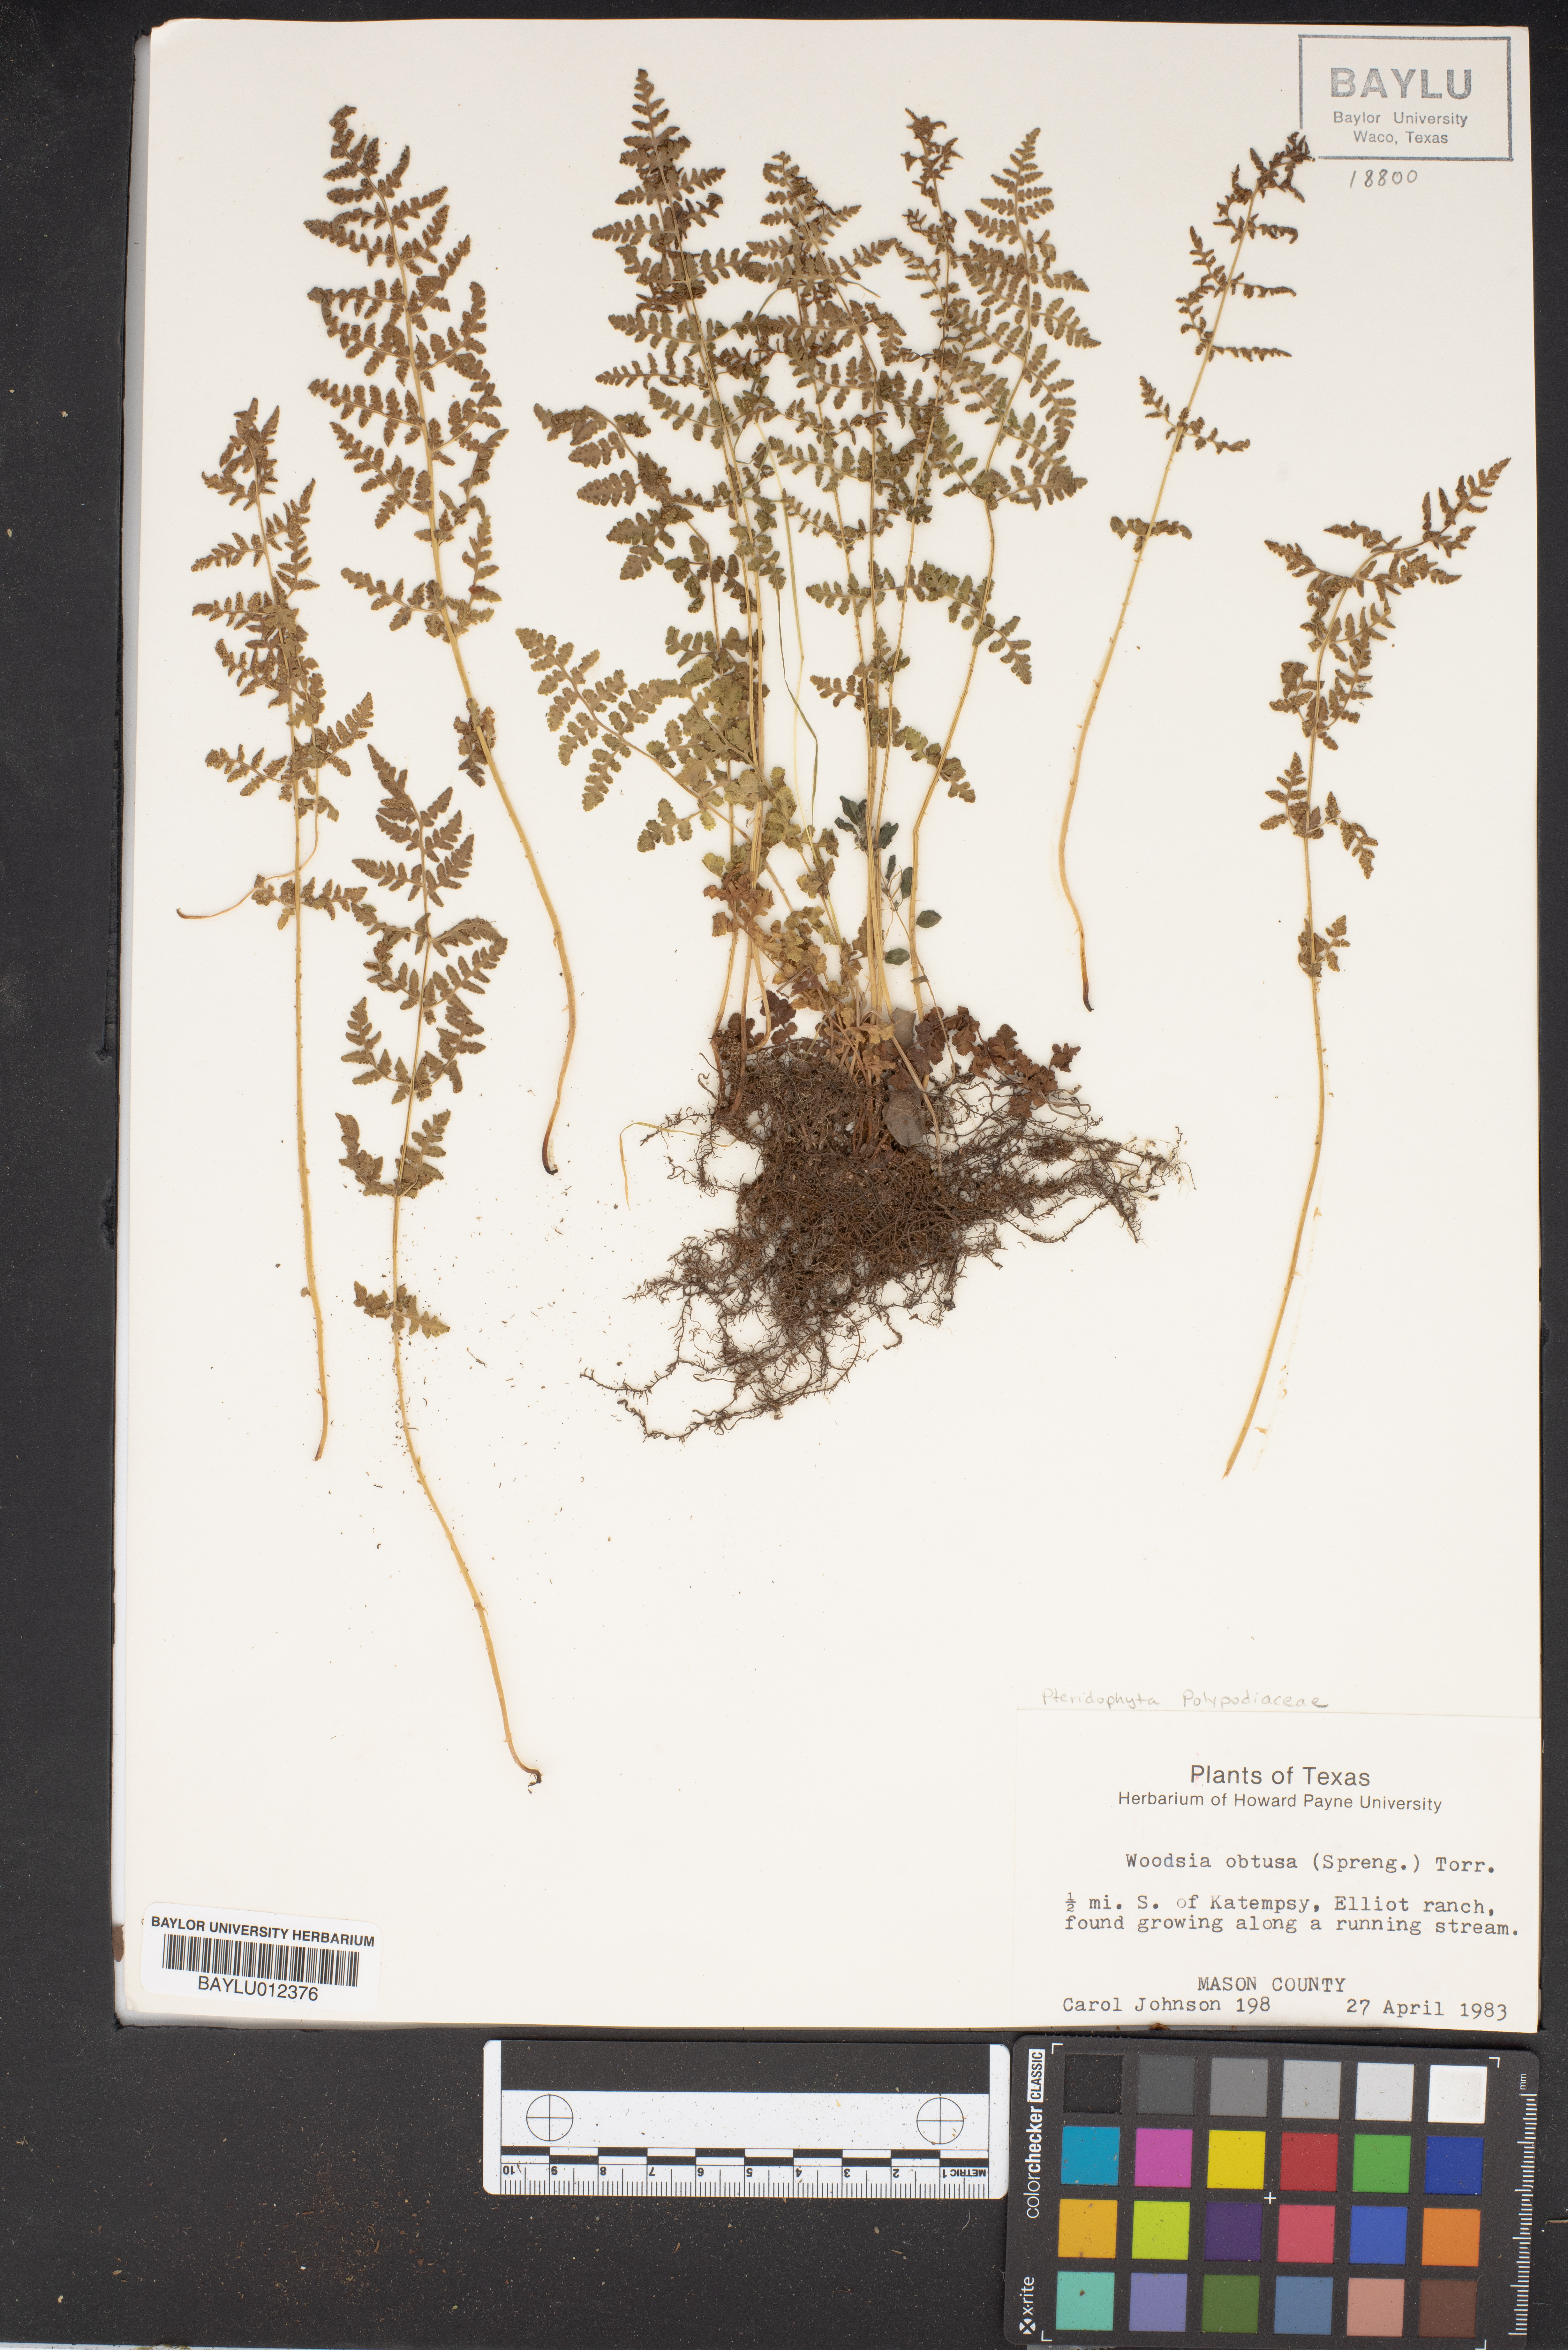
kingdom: Plantae
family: Pteridophyta
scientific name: Pteridophyta
